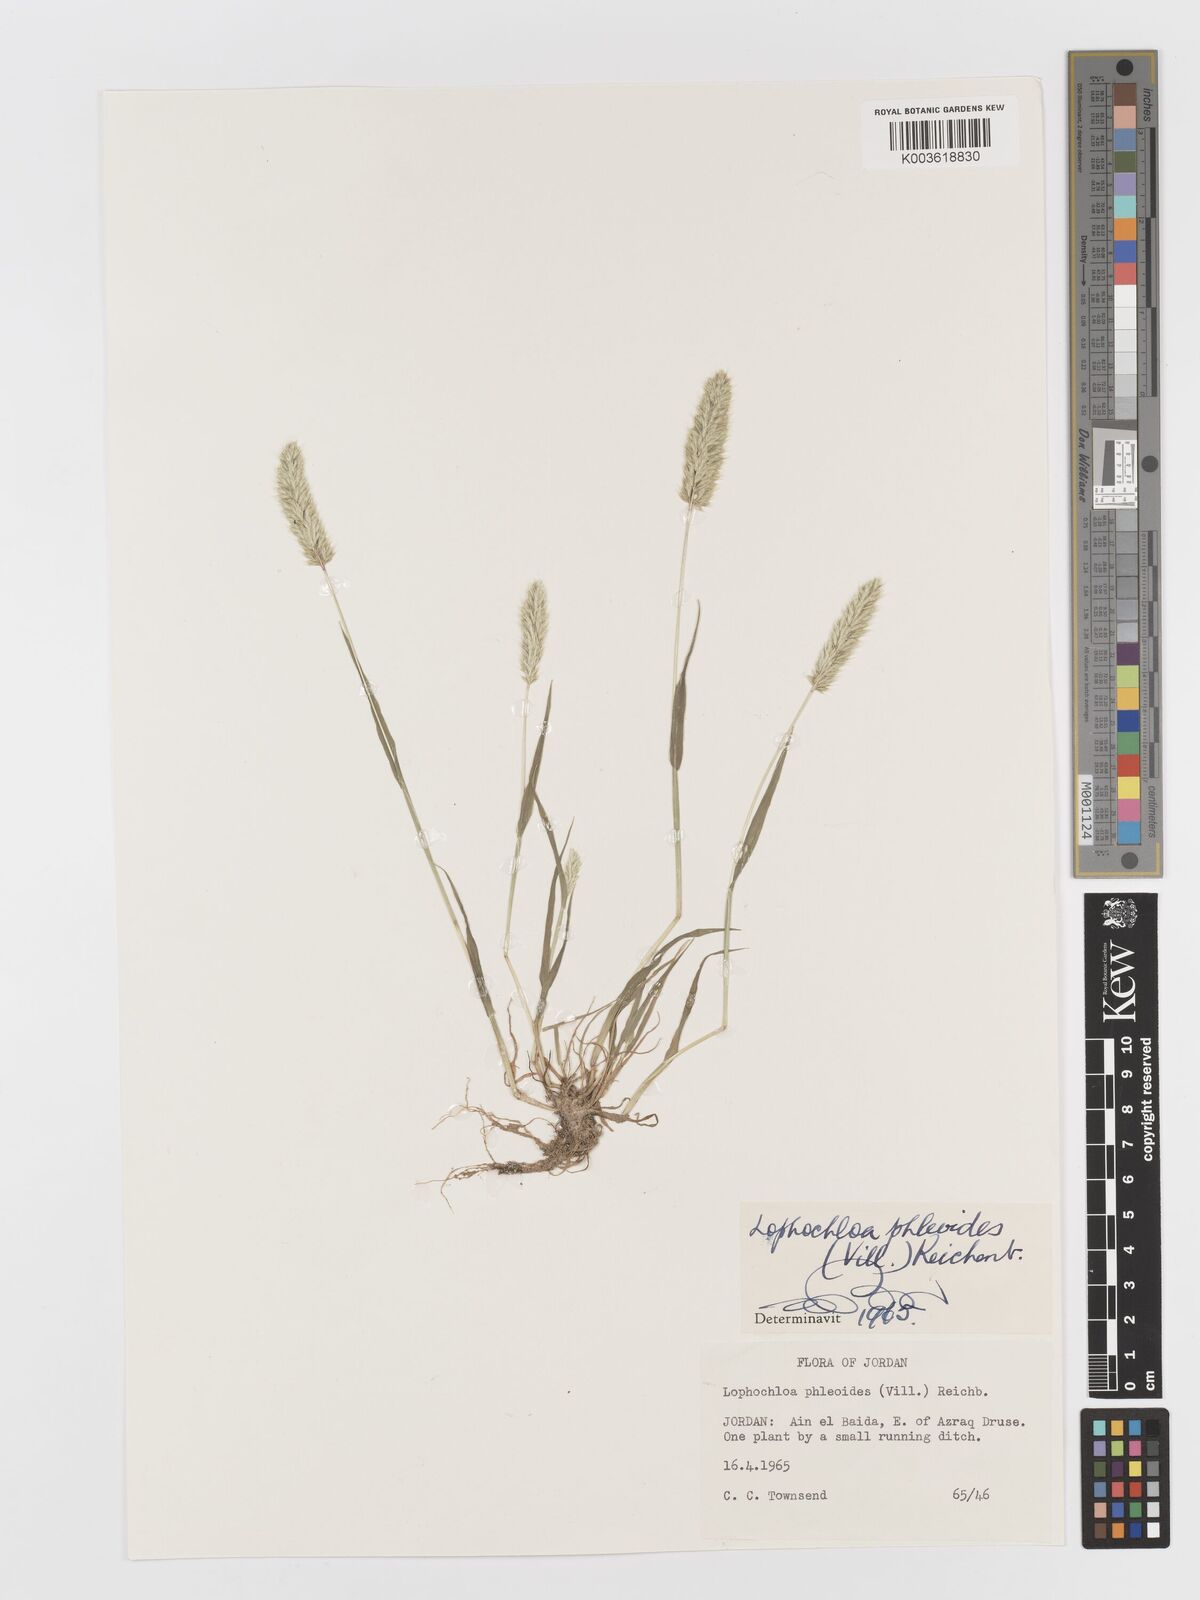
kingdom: Plantae
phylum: Tracheophyta
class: Liliopsida
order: Poales
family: Poaceae
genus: Rostraria
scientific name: Rostraria cristata
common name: Mediterranean hair-grass
